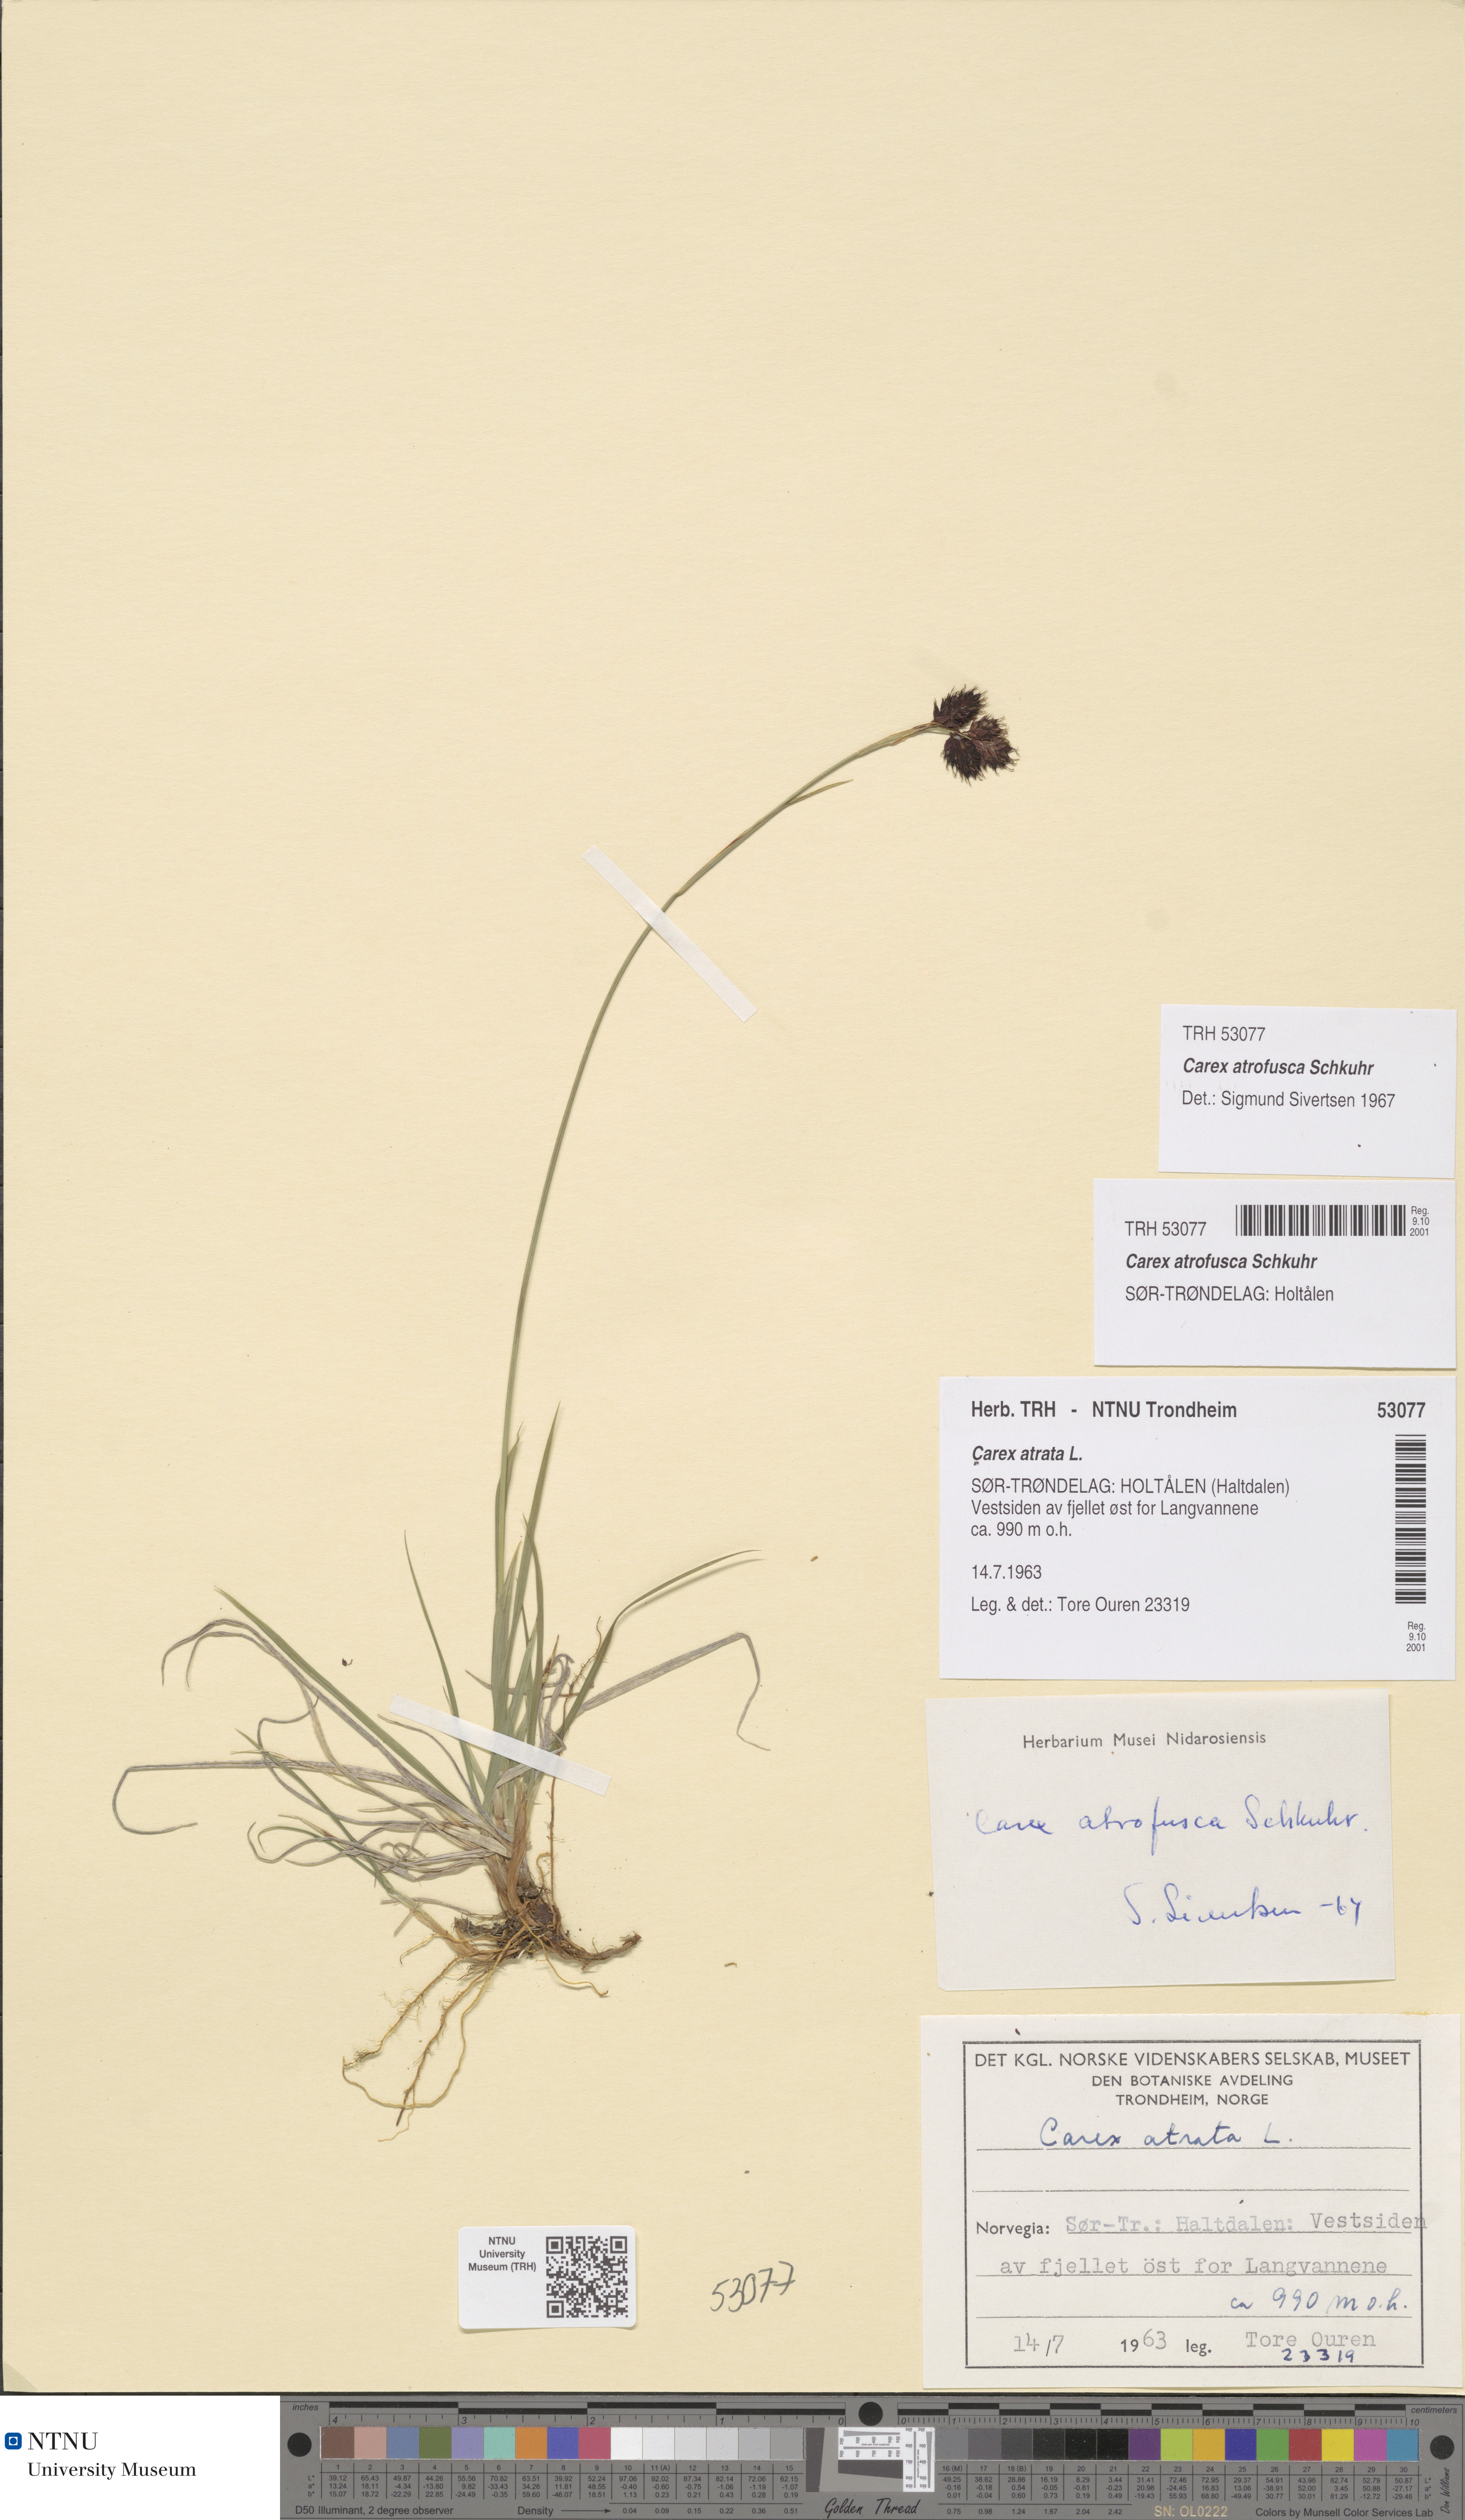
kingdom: Plantae
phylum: Tracheophyta
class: Liliopsida
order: Poales
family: Cyperaceae
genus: Carex
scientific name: Carex atrofusca
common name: Scorched alpine-sedge
